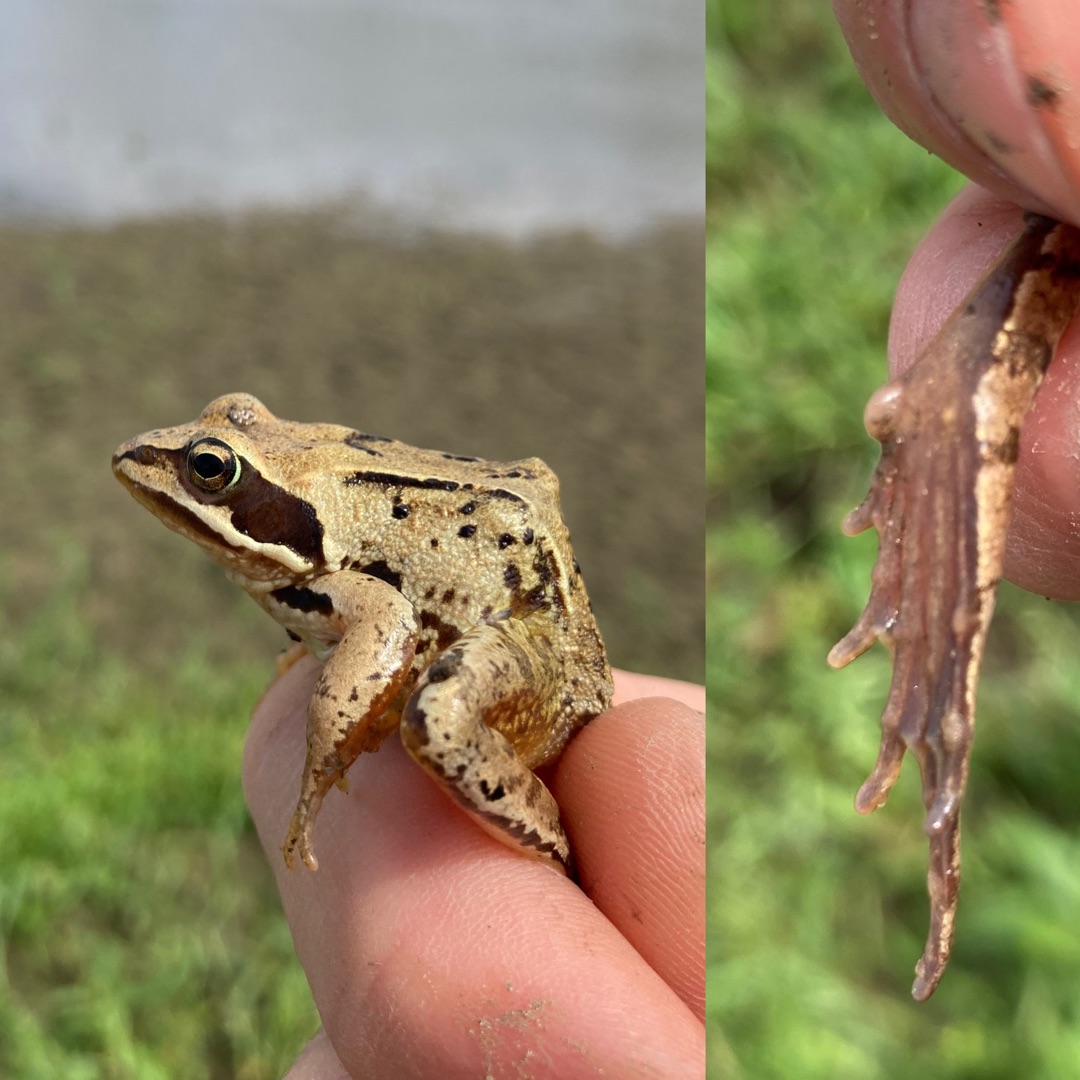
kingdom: Animalia
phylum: Chordata
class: Amphibia
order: Anura
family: Ranidae
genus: Rana
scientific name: Rana arvalis
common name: Spidssnudet frø
